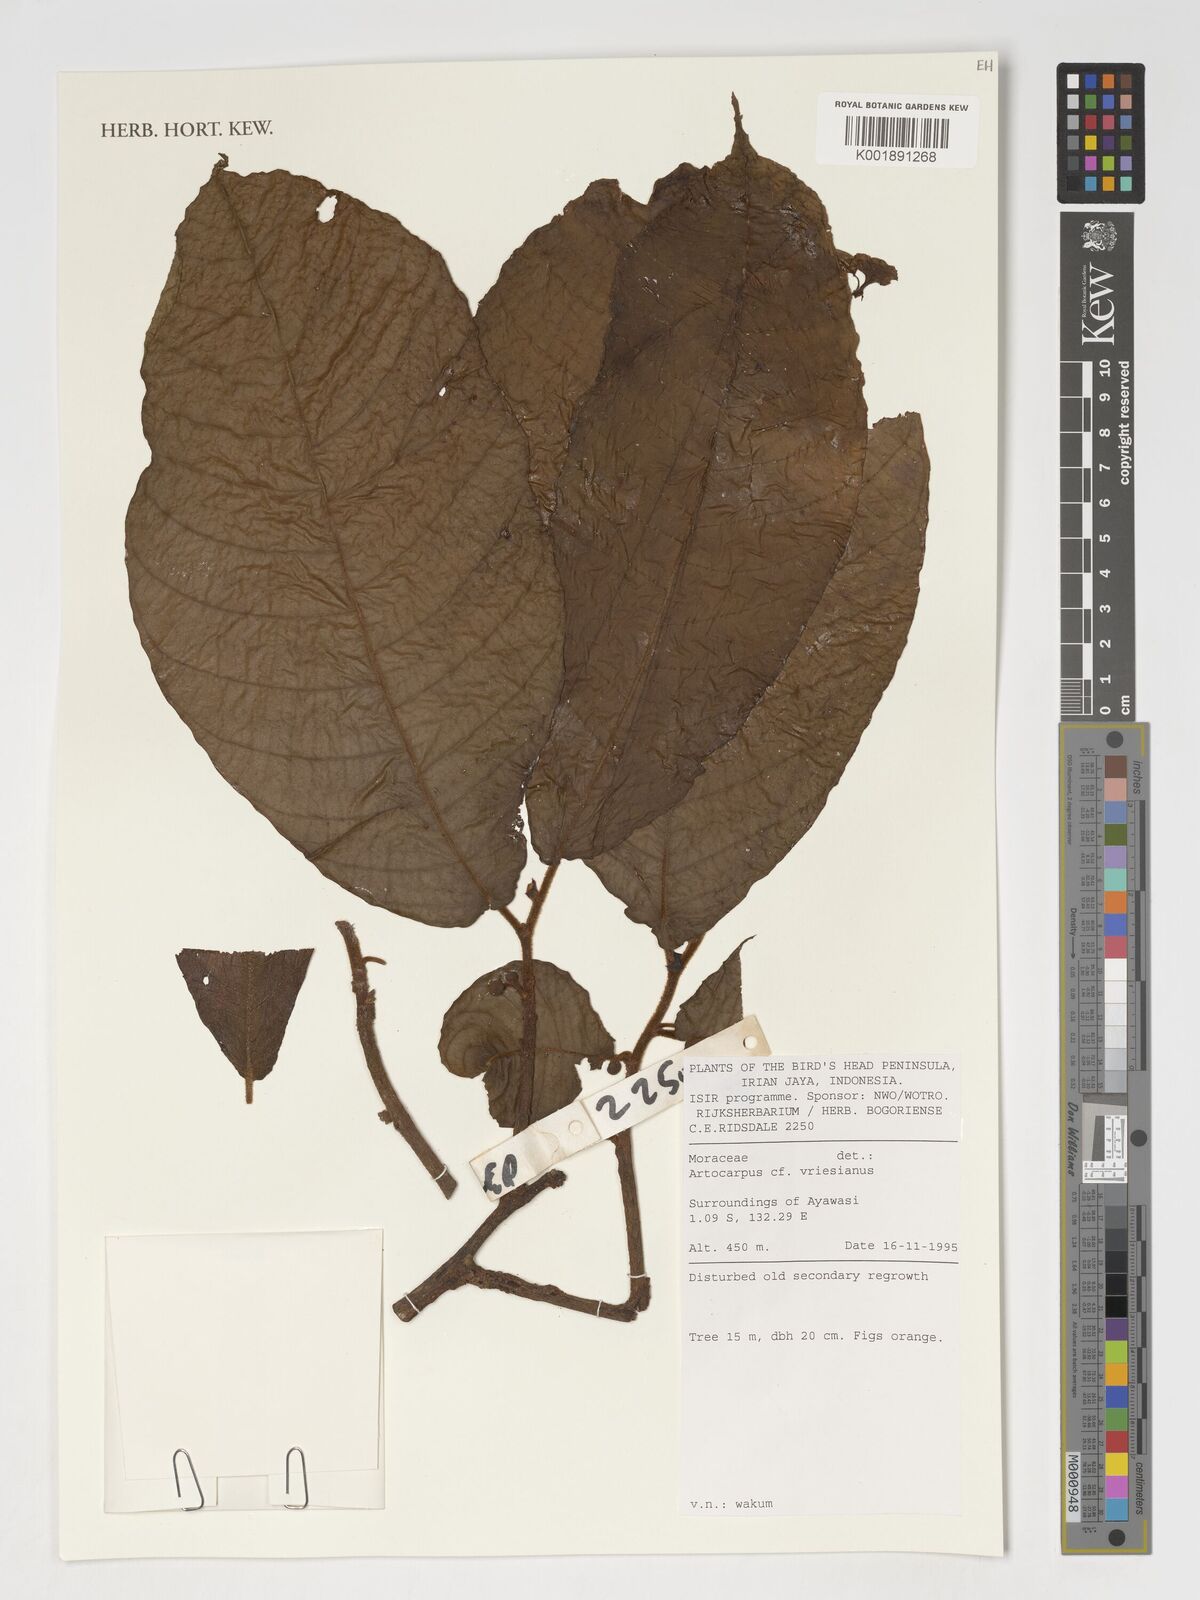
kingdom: Plantae
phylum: Tracheophyta
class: Magnoliopsida
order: Rosales
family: Moraceae
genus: Artocarpus
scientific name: Artocarpus vrieseanus
